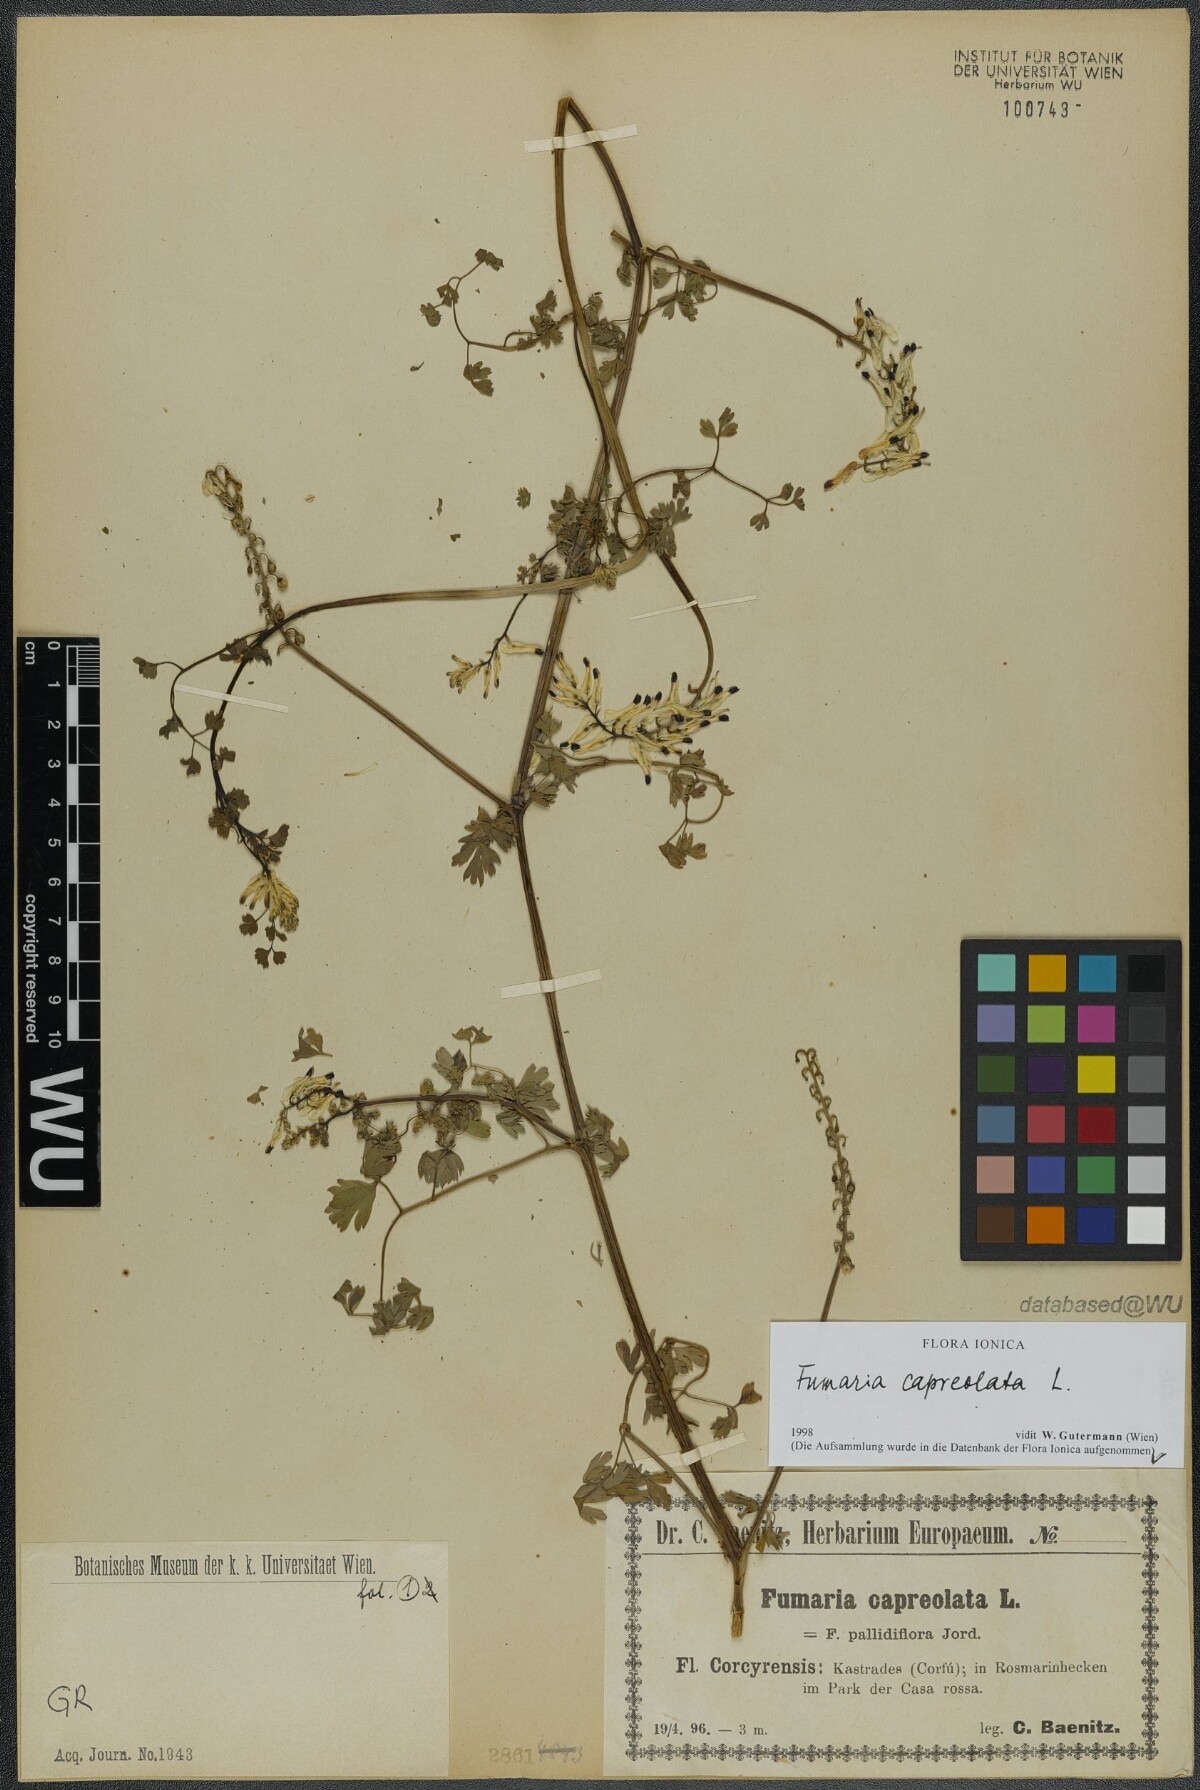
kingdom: Plantae
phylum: Tracheophyta
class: Magnoliopsida
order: Ranunculales
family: Papaveraceae
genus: Fumaria
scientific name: Fumaria capreolata
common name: White ramping-fumitory
